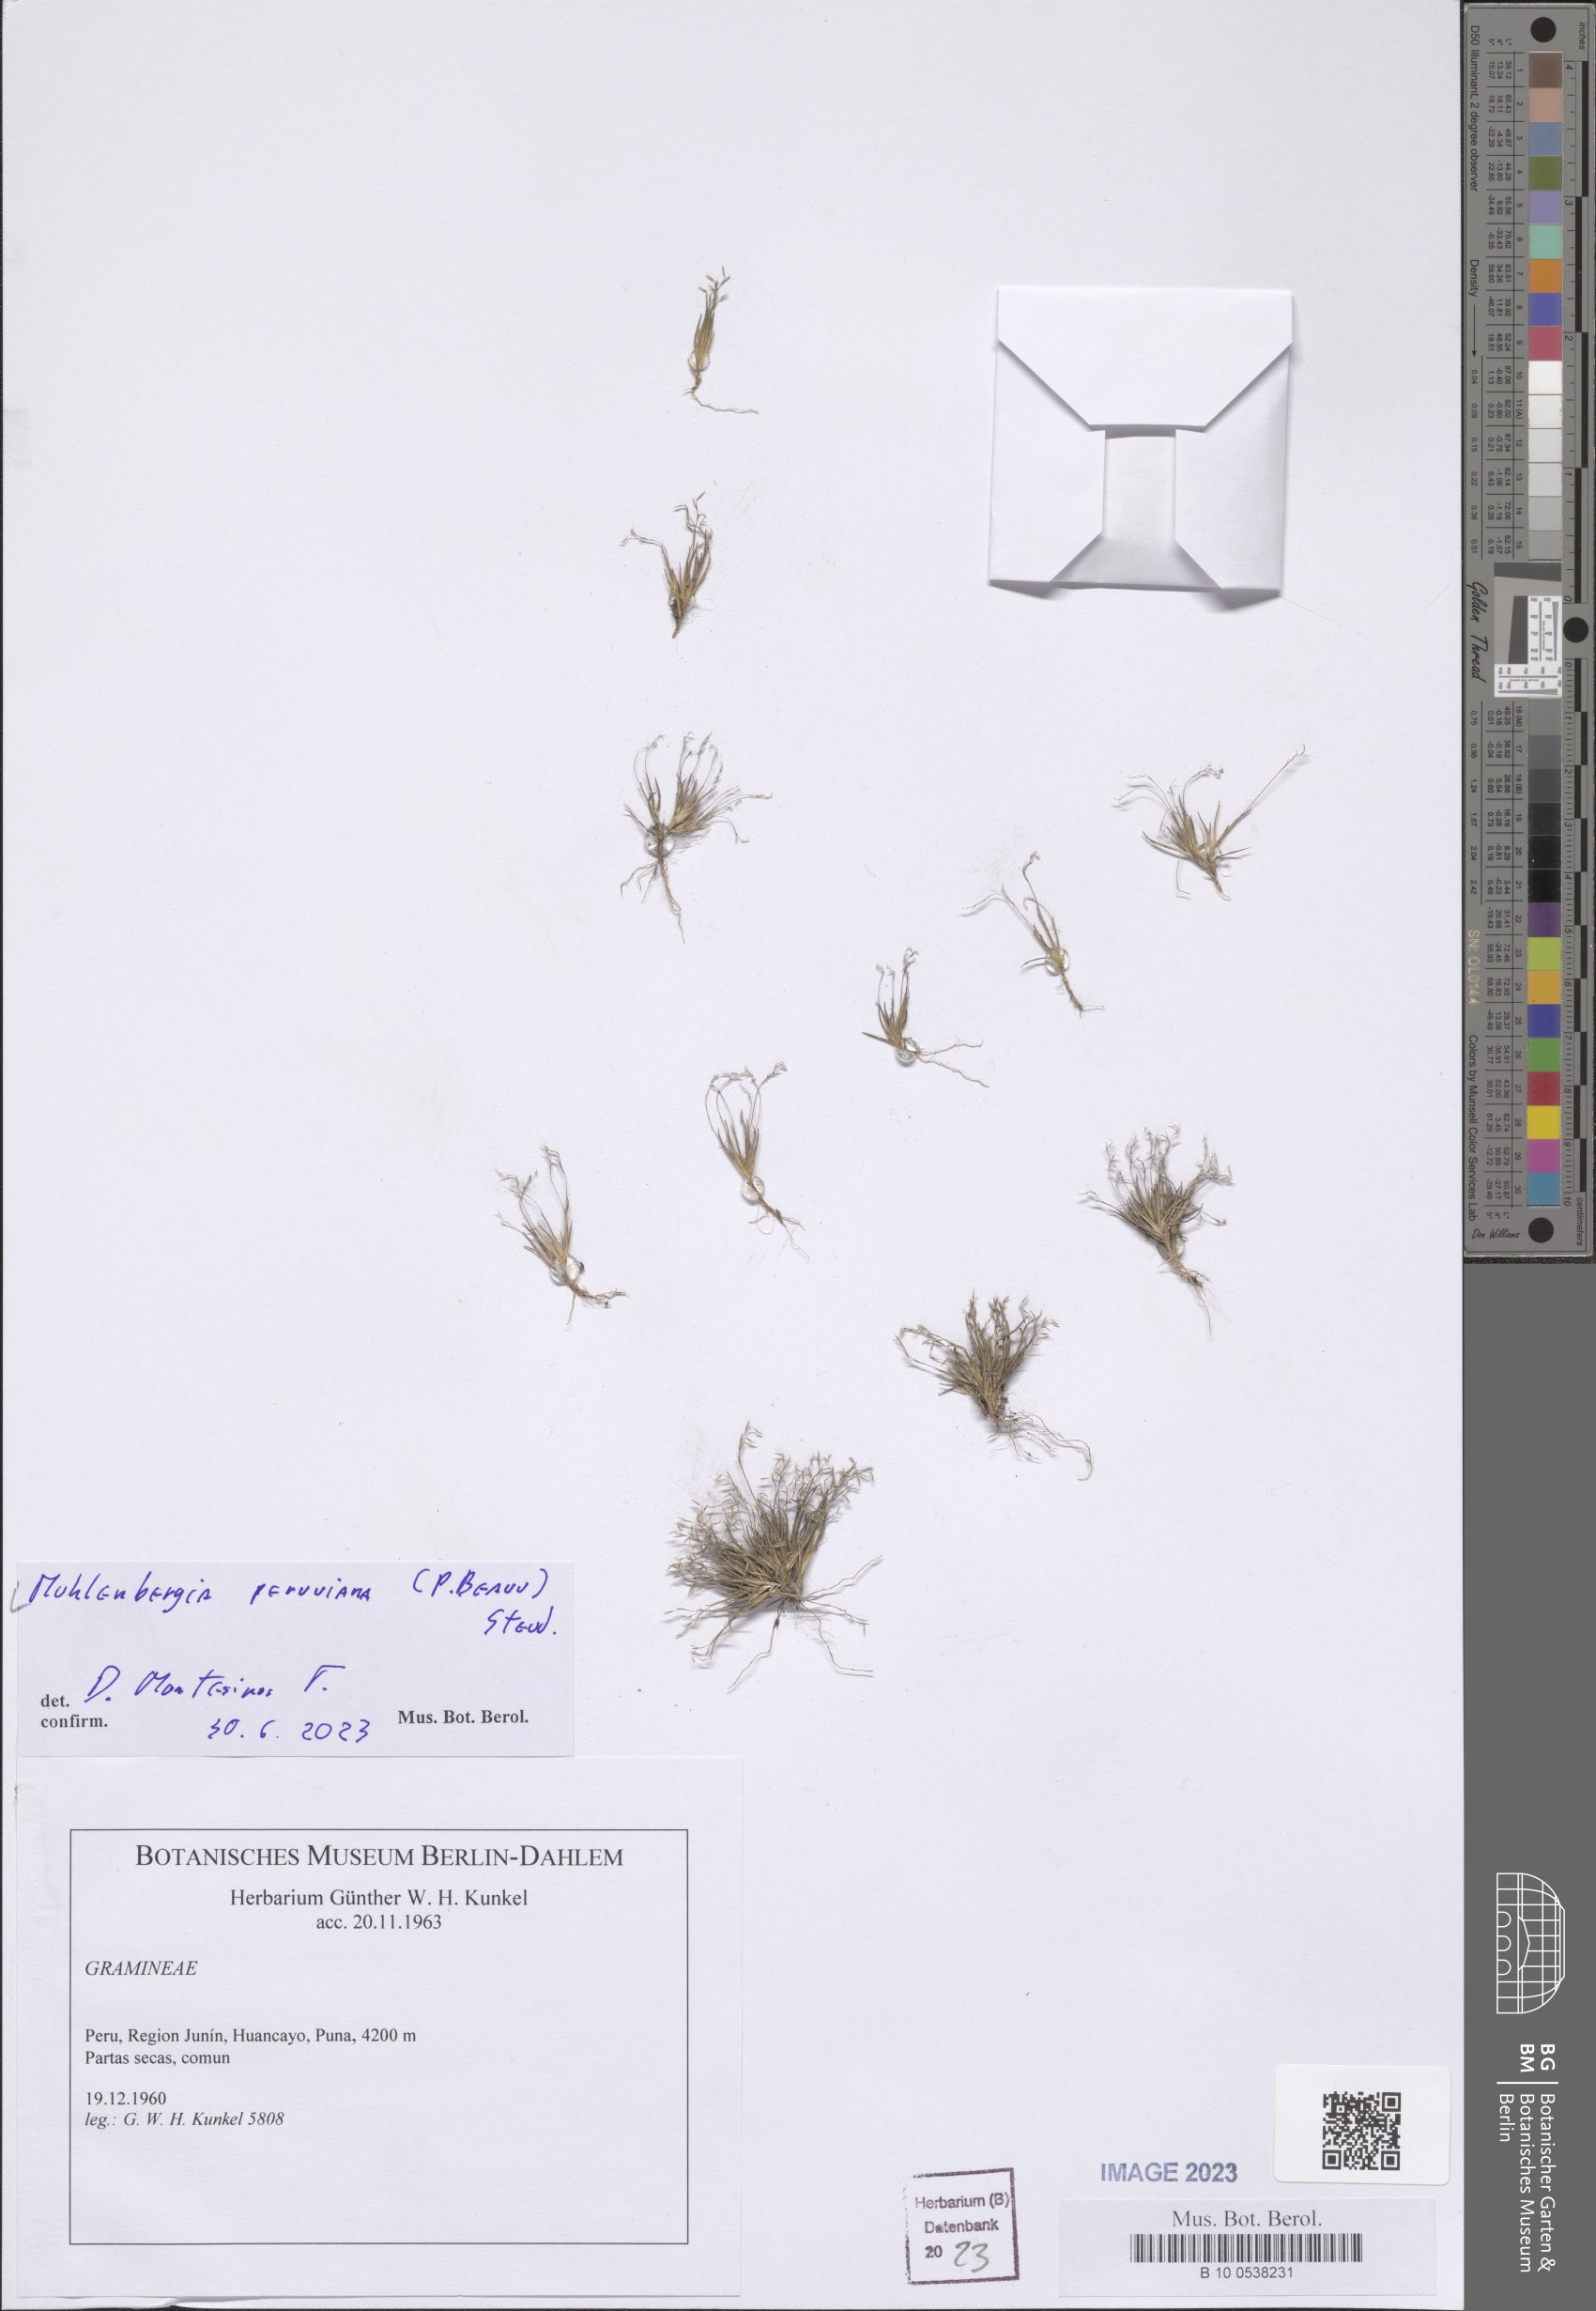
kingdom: Plantae
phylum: Tracheophyta
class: Liliopsida
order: Poales
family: Poaceae
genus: Muhlenbergia
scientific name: Muhlenbergia peruviana
